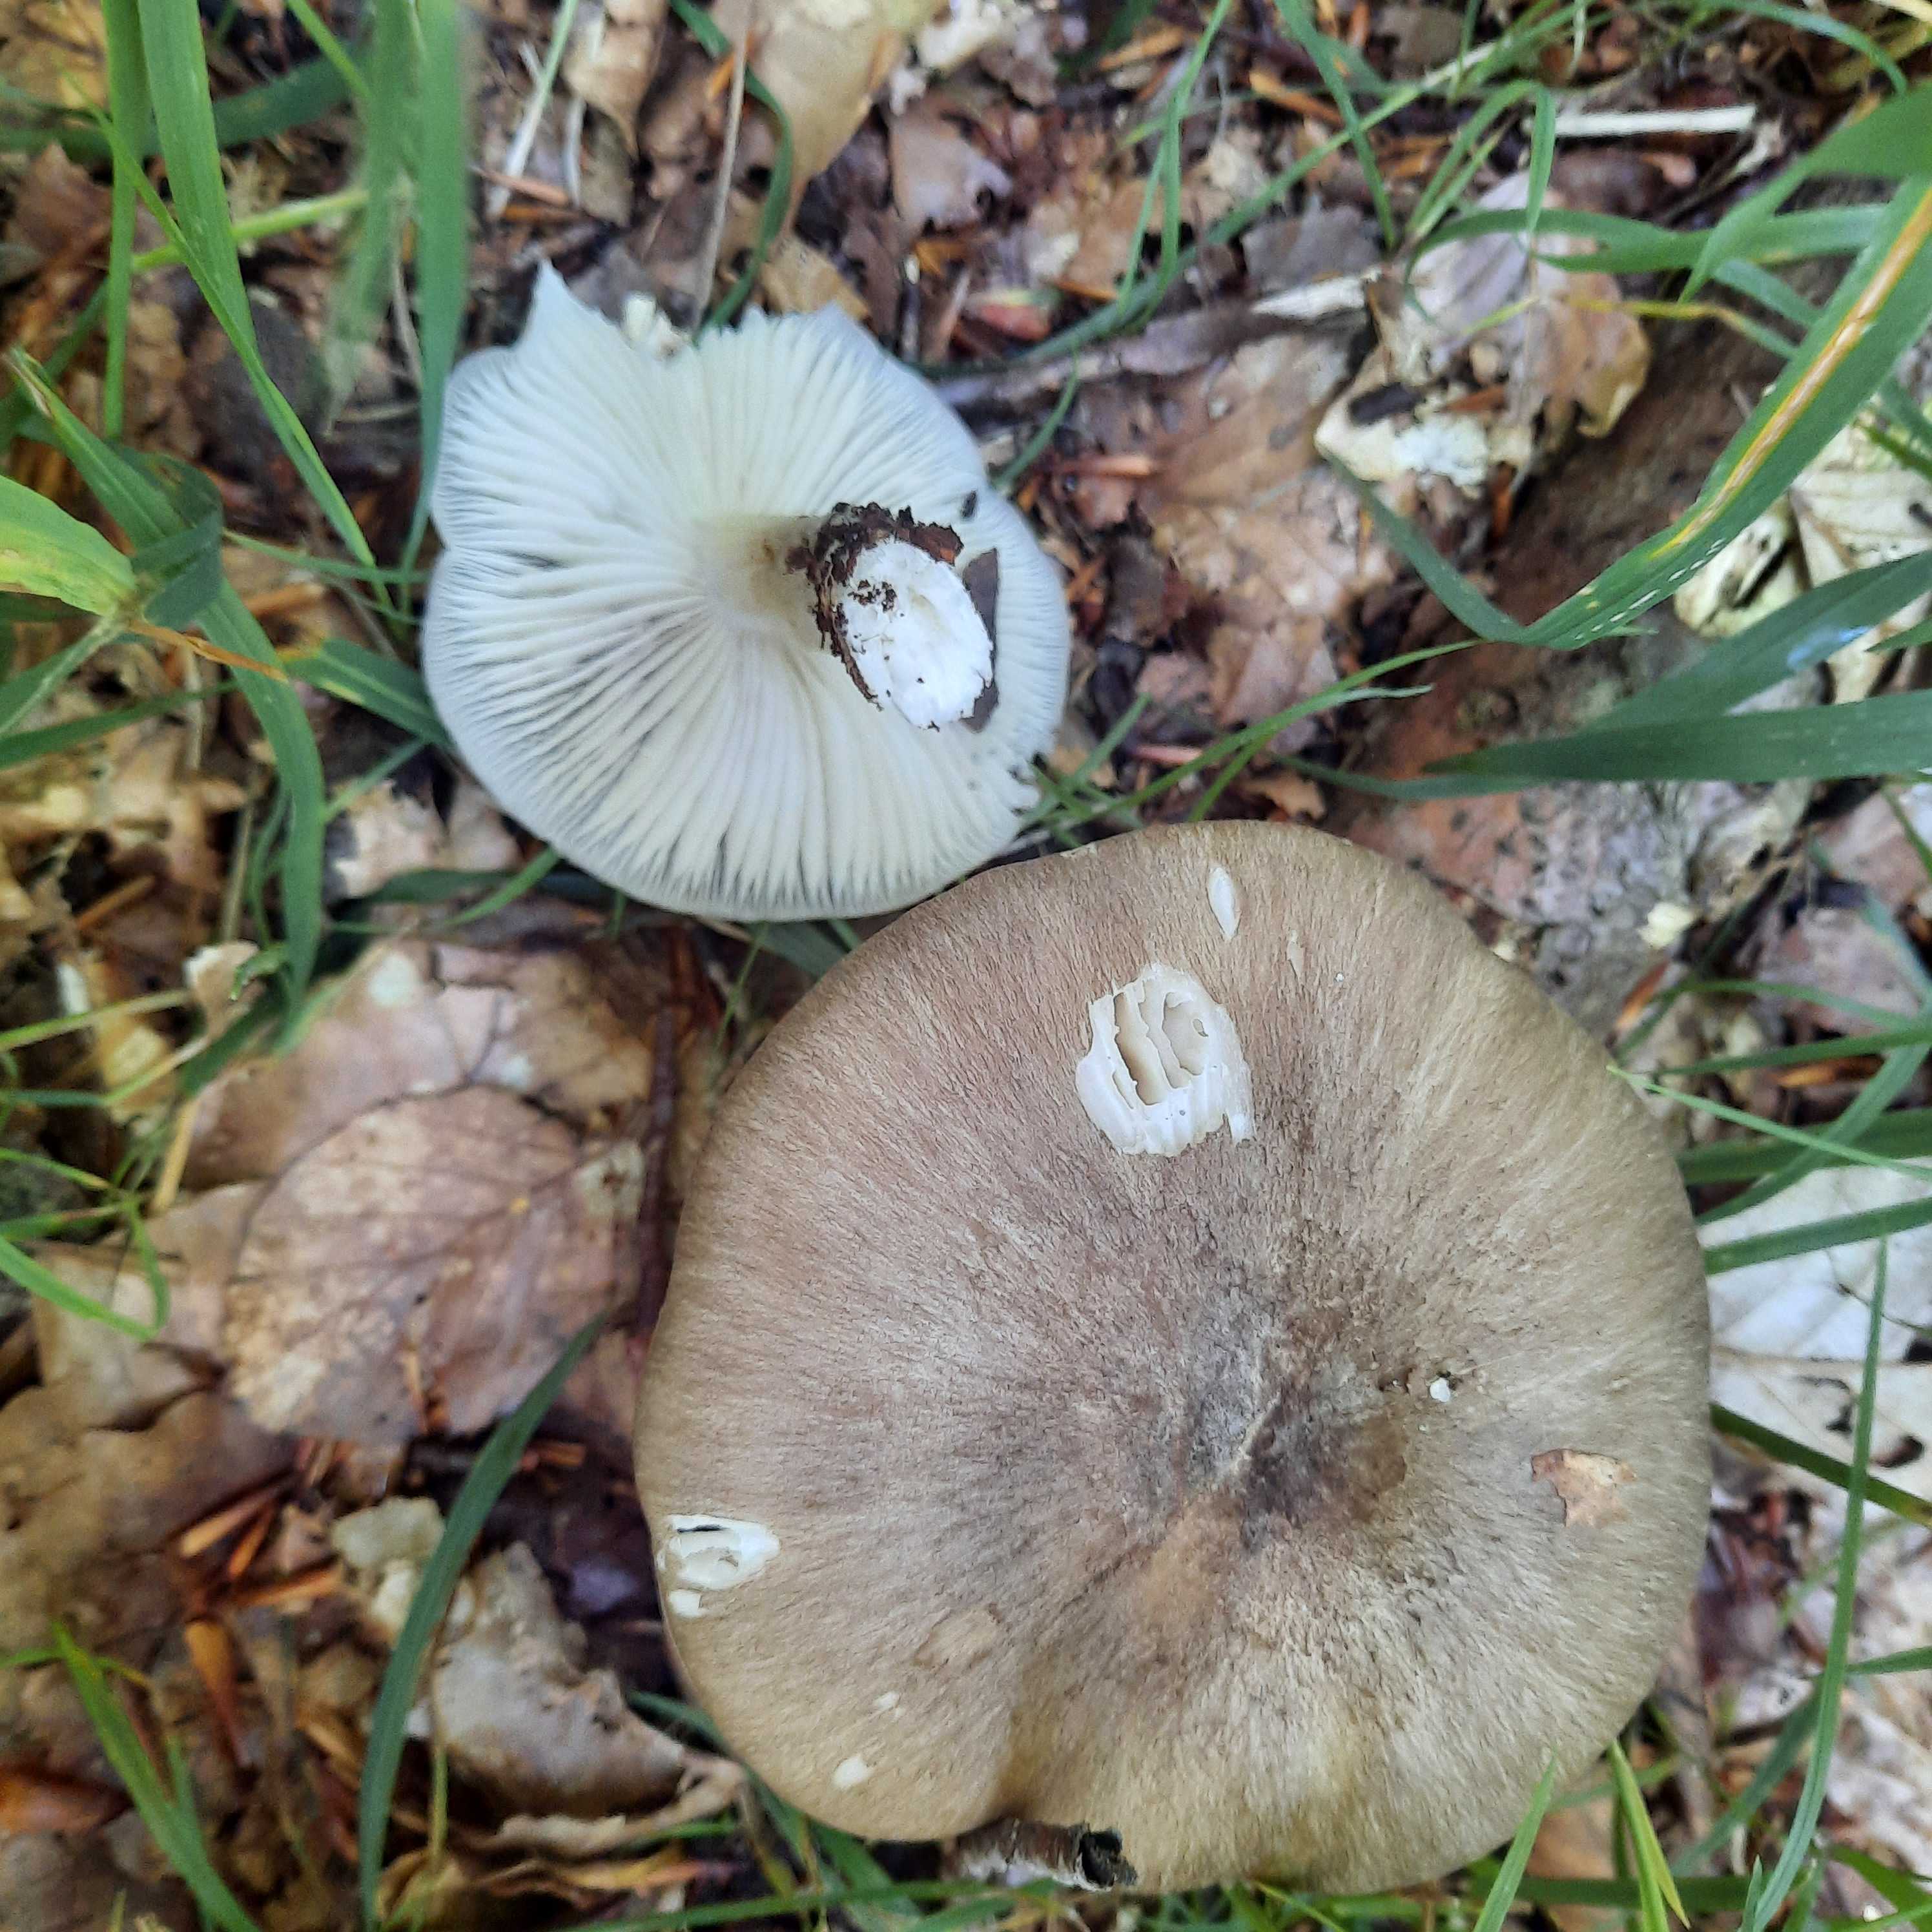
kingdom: Fungi
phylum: Basidiomycota
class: Agaricomycetes
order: Agaricales
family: Tricholomataceae
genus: Megacollybia
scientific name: Megacollybia platyphylla
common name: bredbladet væbnerhat
